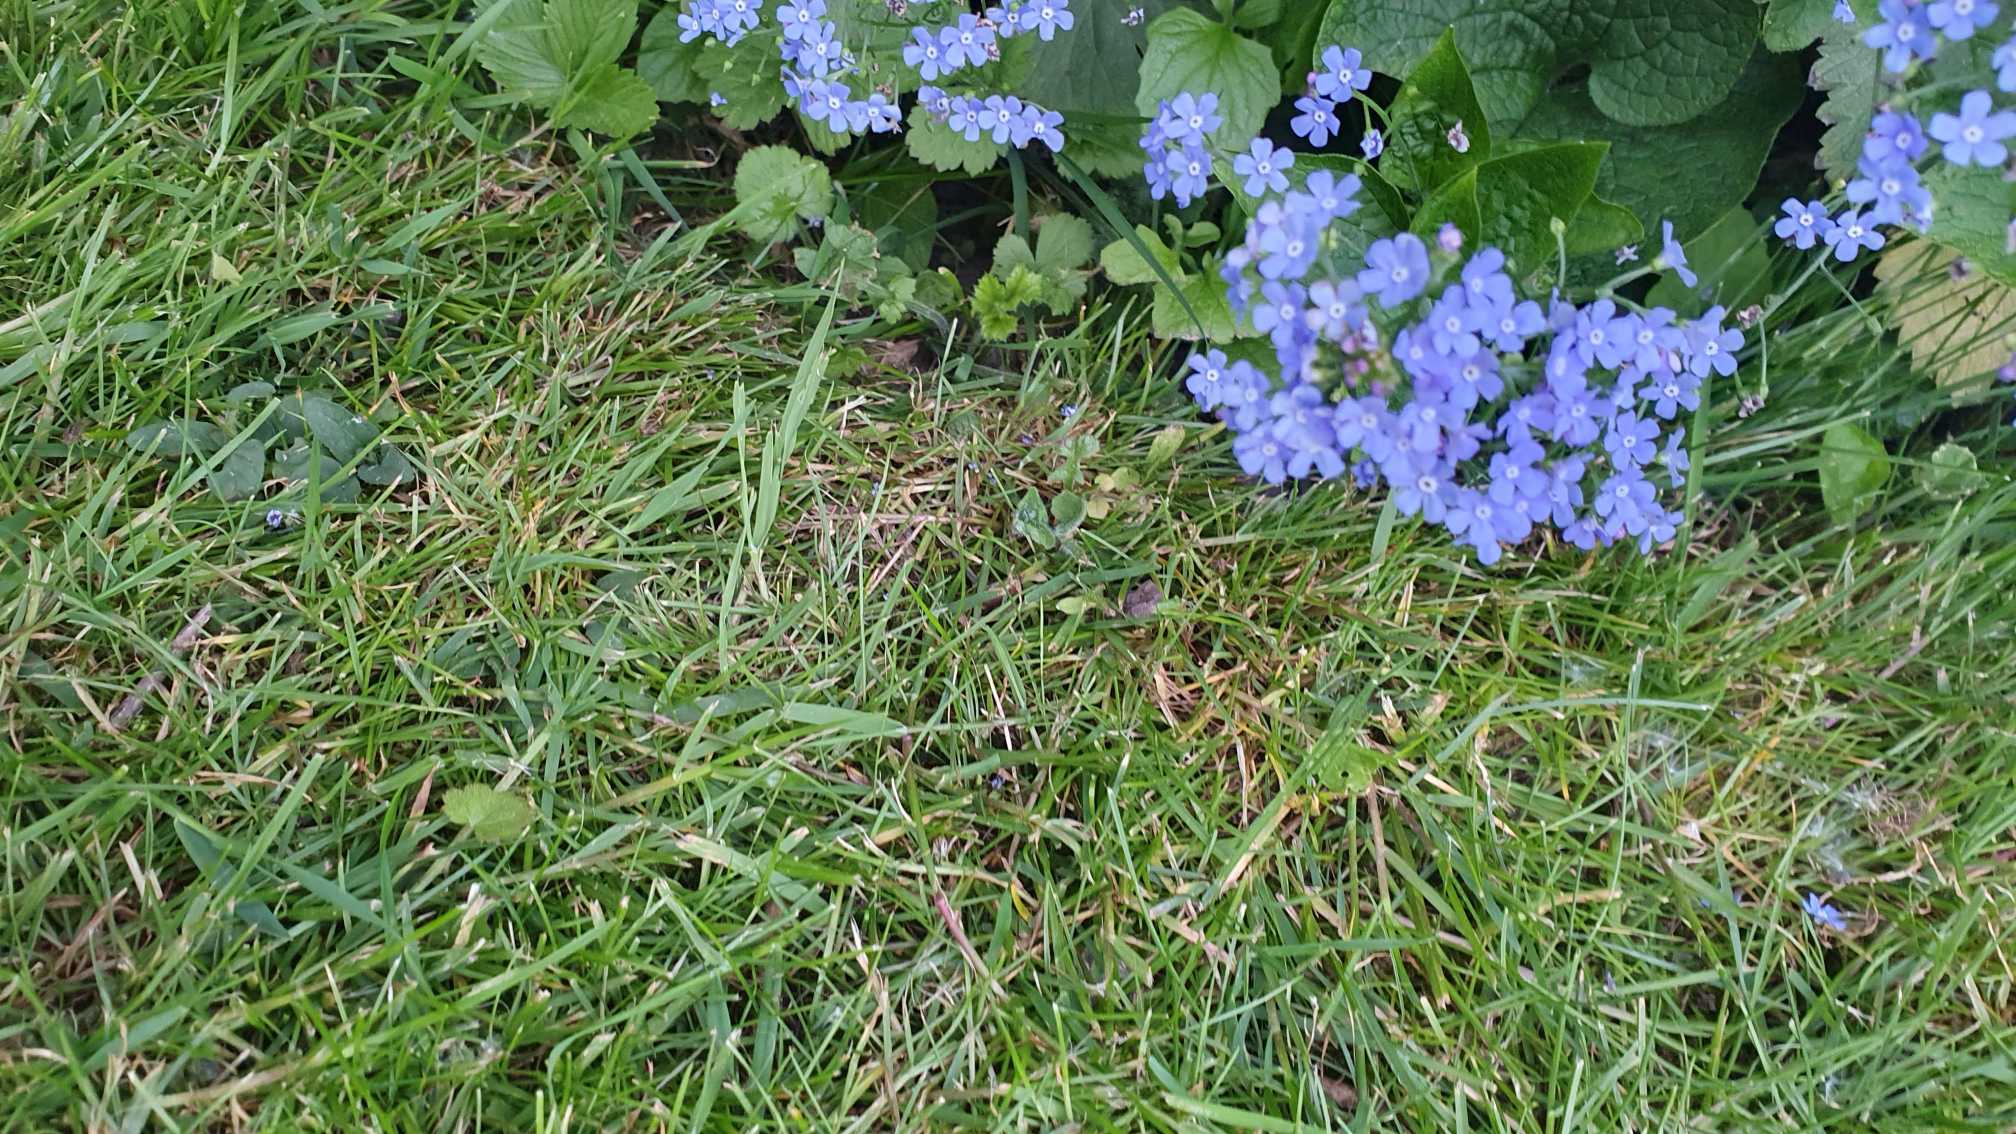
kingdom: Plantae
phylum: Tracheophyta
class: Magnoliopsida
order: Boraginales
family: Boraginaceae
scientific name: Boraginaceae
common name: Rubladfamilien
